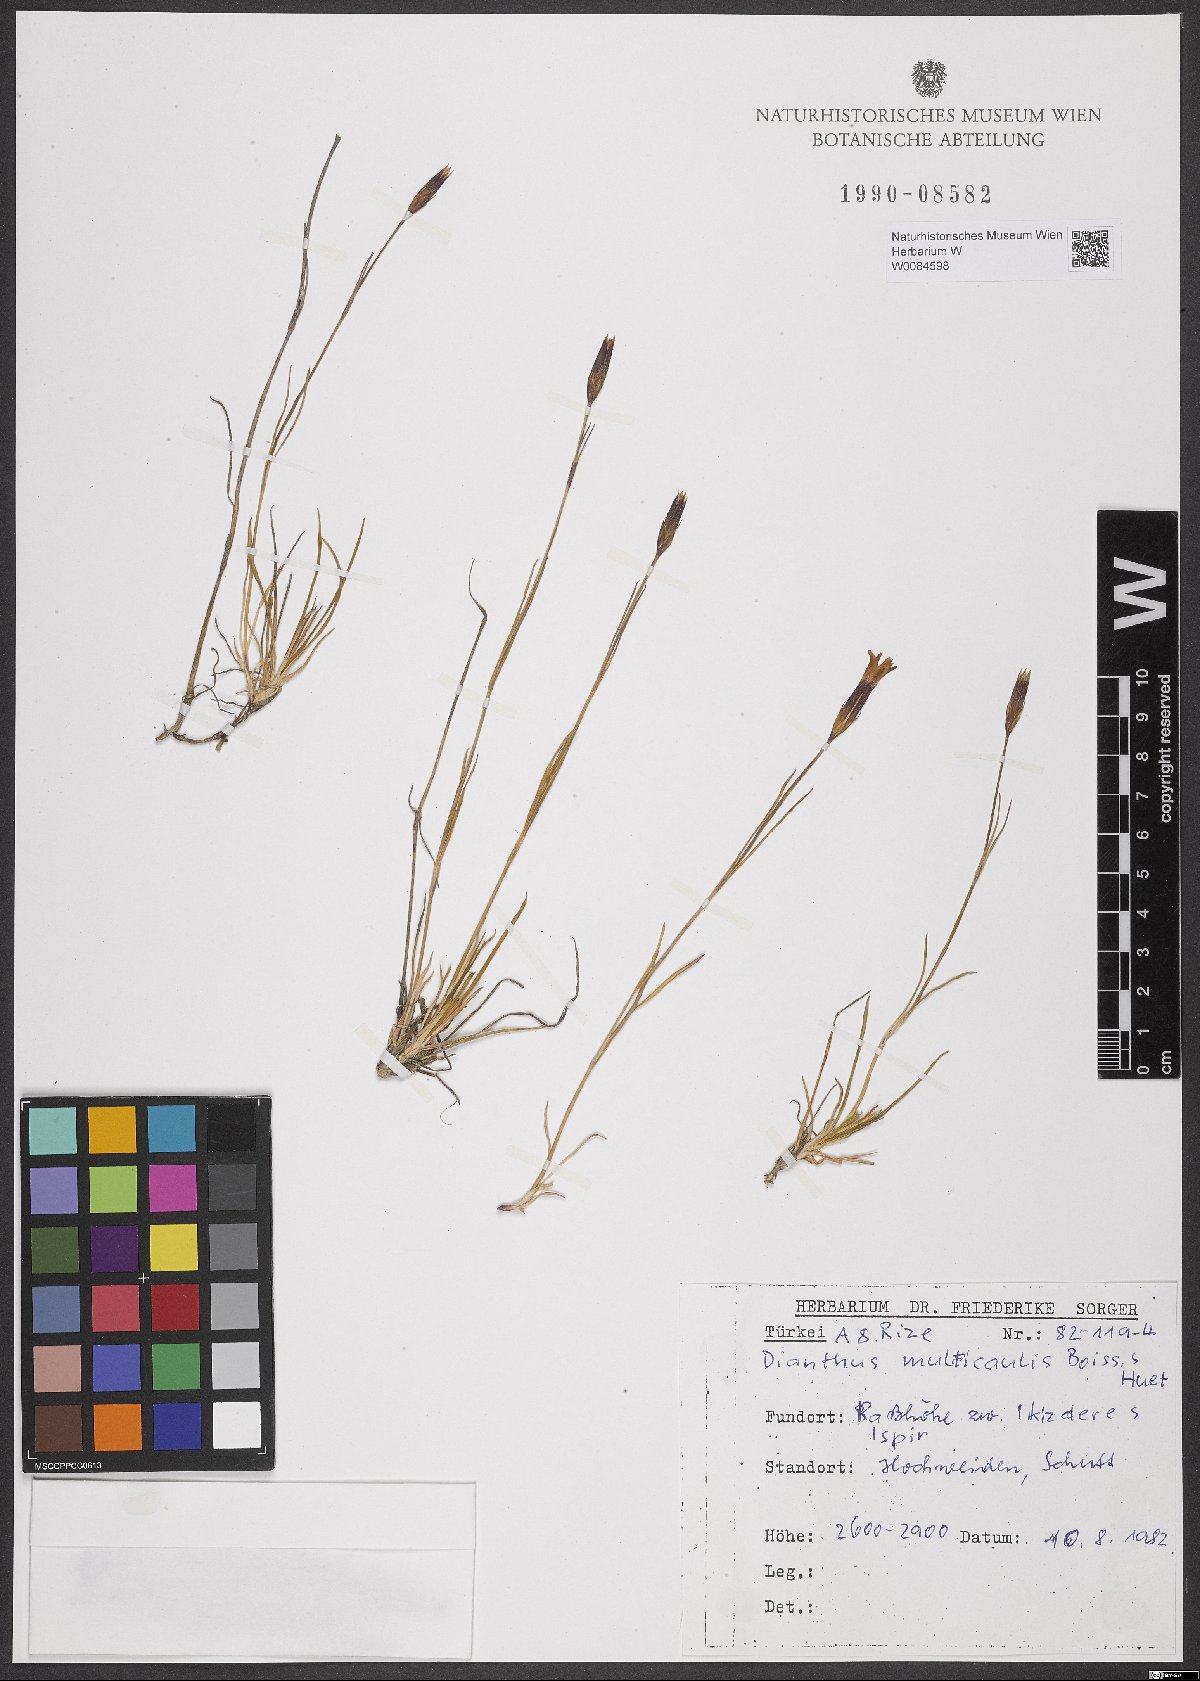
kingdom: Plantae
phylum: Tracheophyta
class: Magnoliopsida
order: Caryophyllales
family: Caryophyllaceae
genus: Dianthus
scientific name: Dianthus cretaceus
